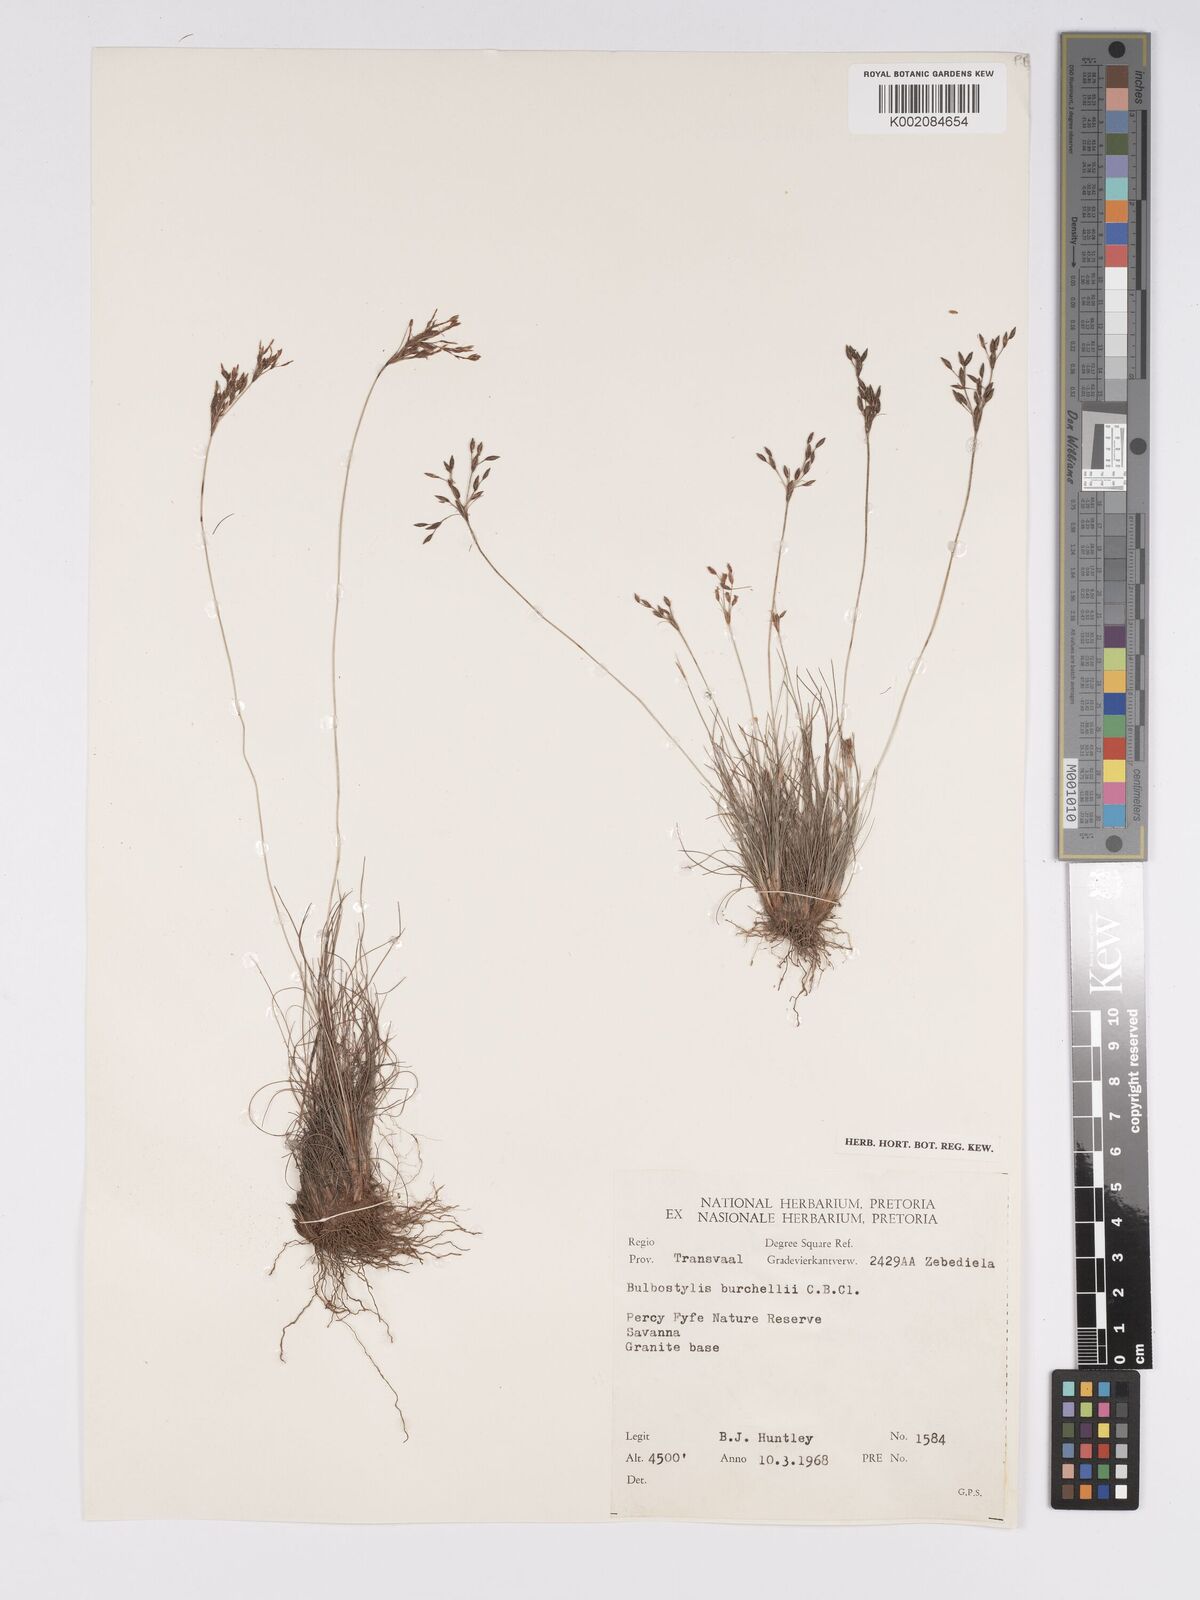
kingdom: Plantae
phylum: Tracheophyta
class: Liliopsida
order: Poales
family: Cyperaceae
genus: Bulbostylis
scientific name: Bulbostylis burchellii
